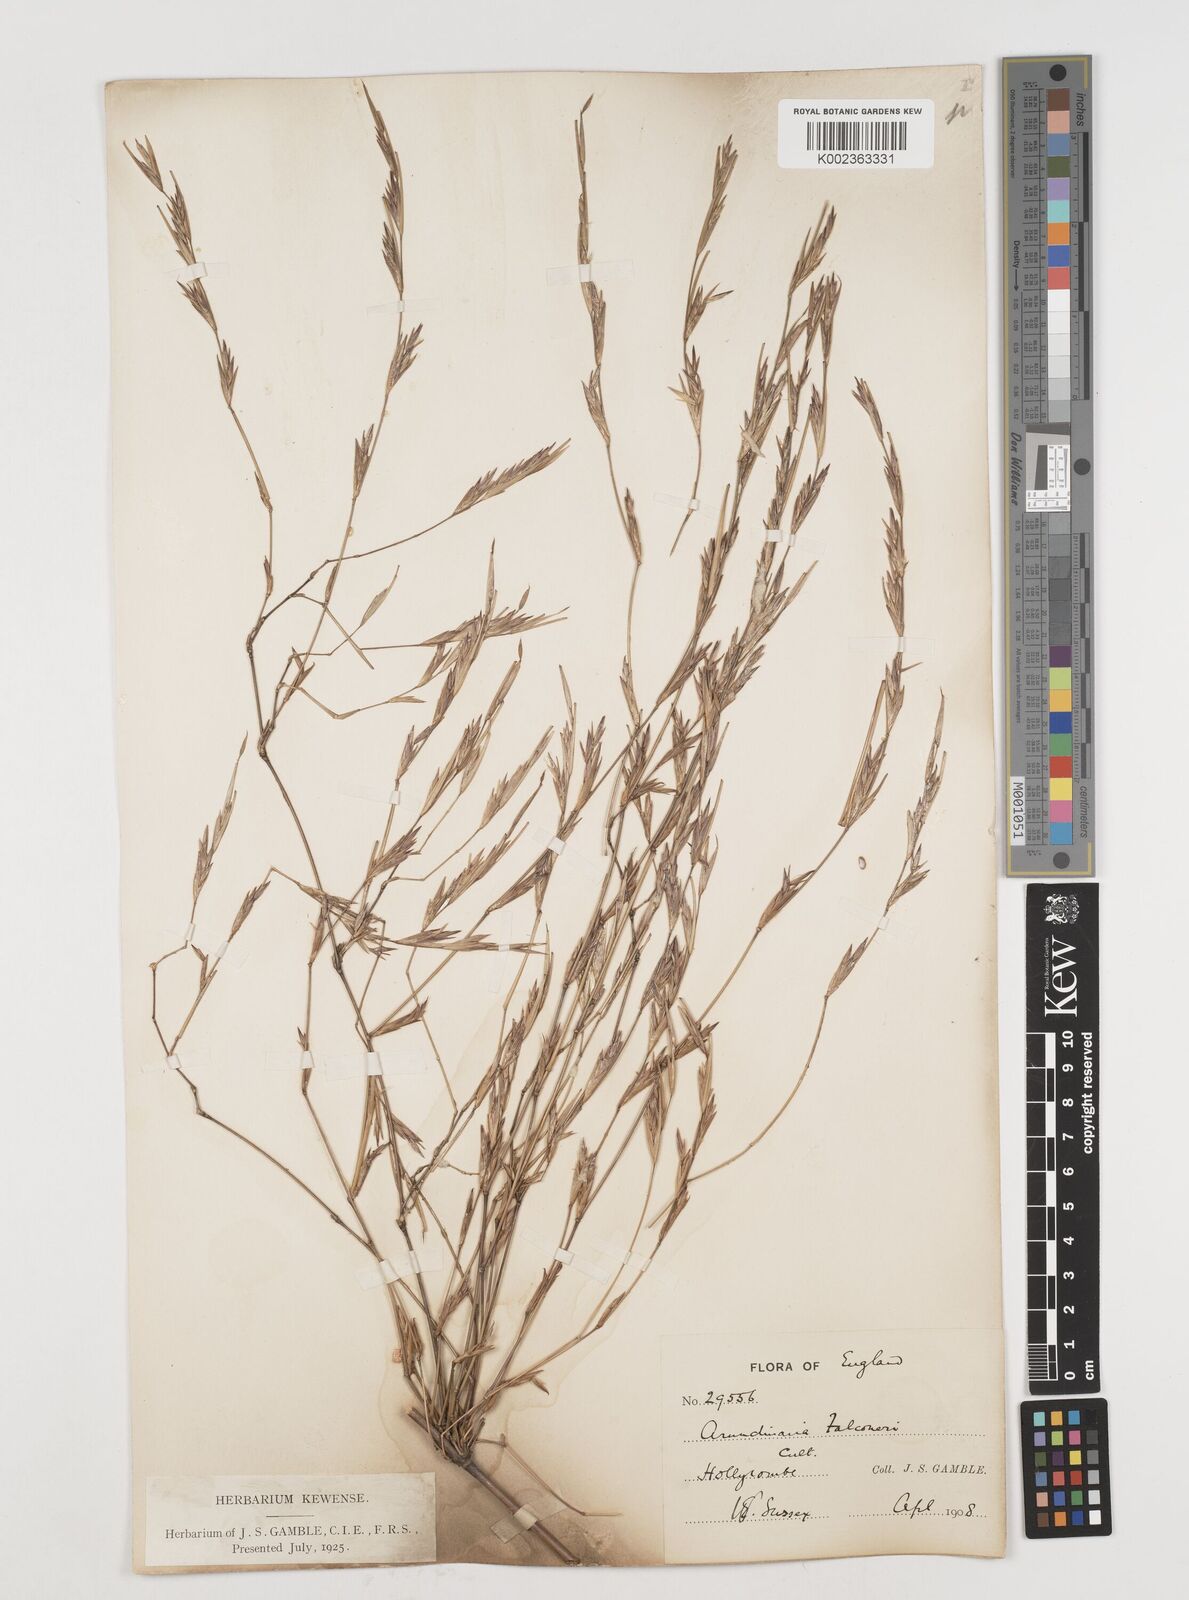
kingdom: Plantae
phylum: Tracheophyta
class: Liliopsida
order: Poales
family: Poaceae
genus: Himalayacalamus
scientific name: Himalayacalamus falconeri
